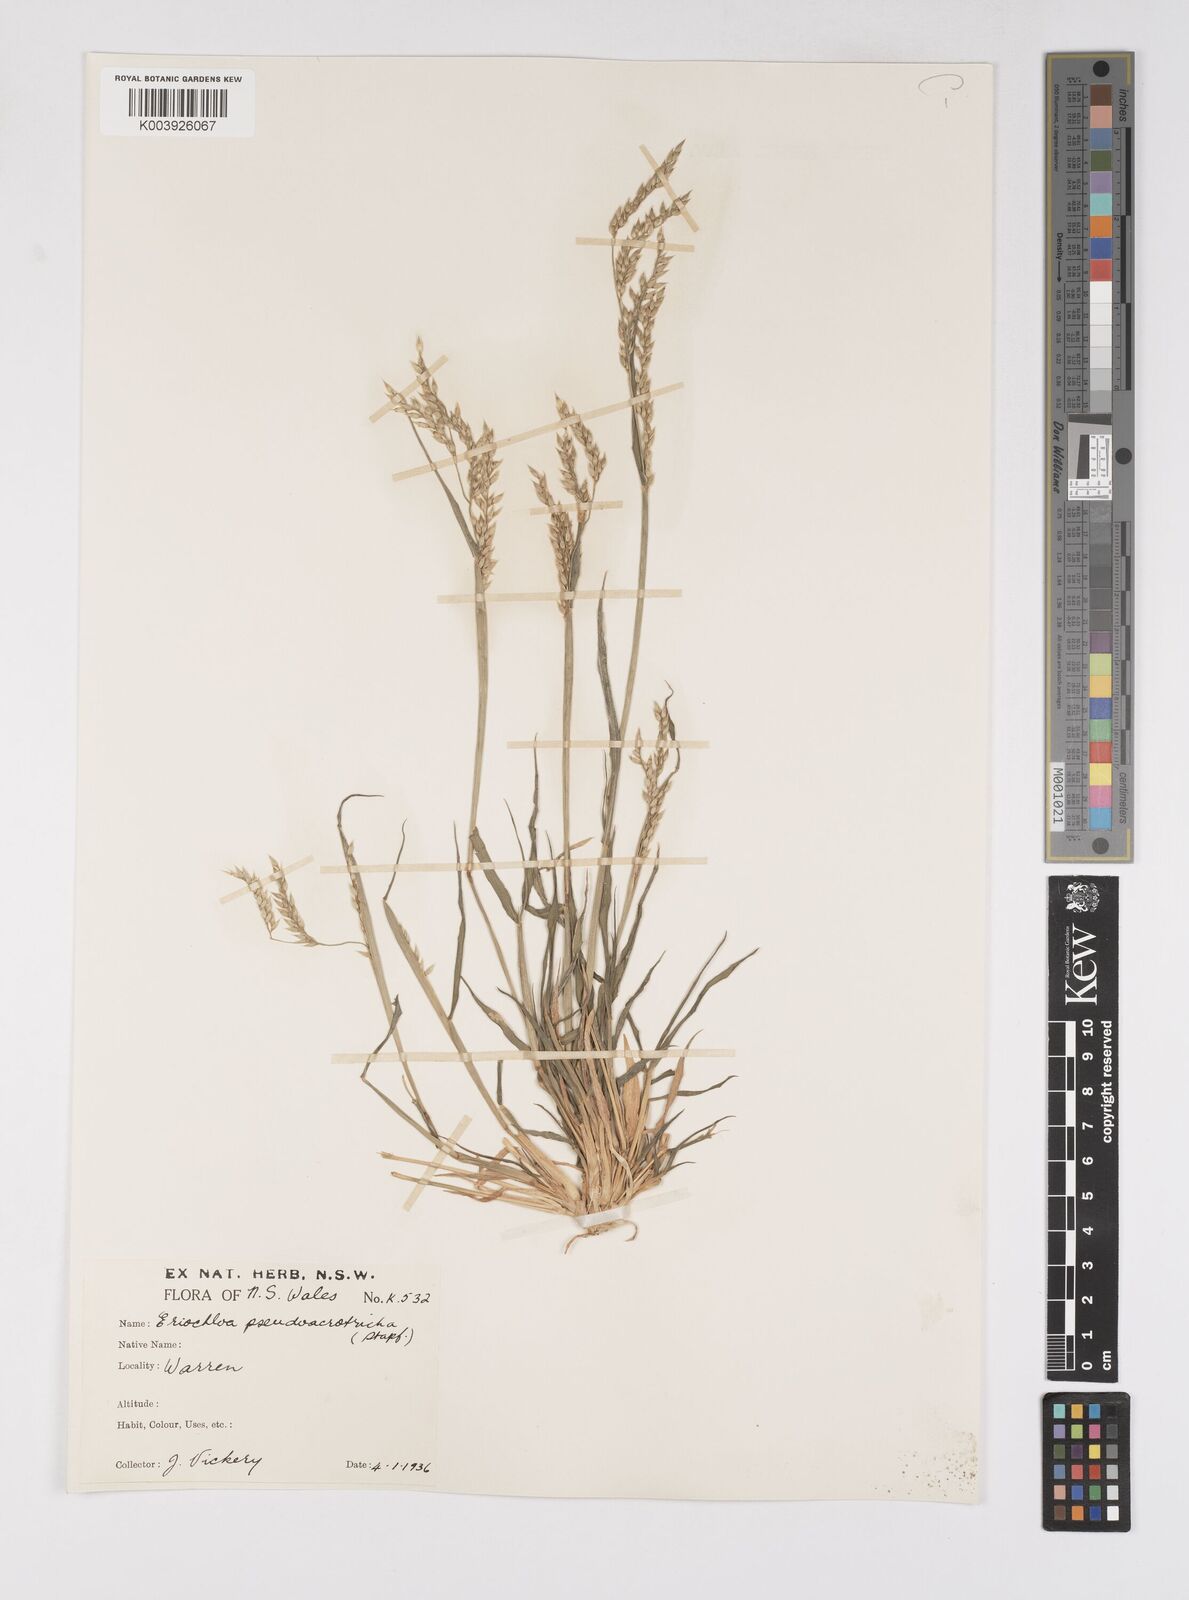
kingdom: Plantae
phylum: Tracheophyta
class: Liliopsida
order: Poales
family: Poaceae
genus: Eriochloa
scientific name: Eriochloa pseudoacrotricha
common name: Perennial cup-grass
